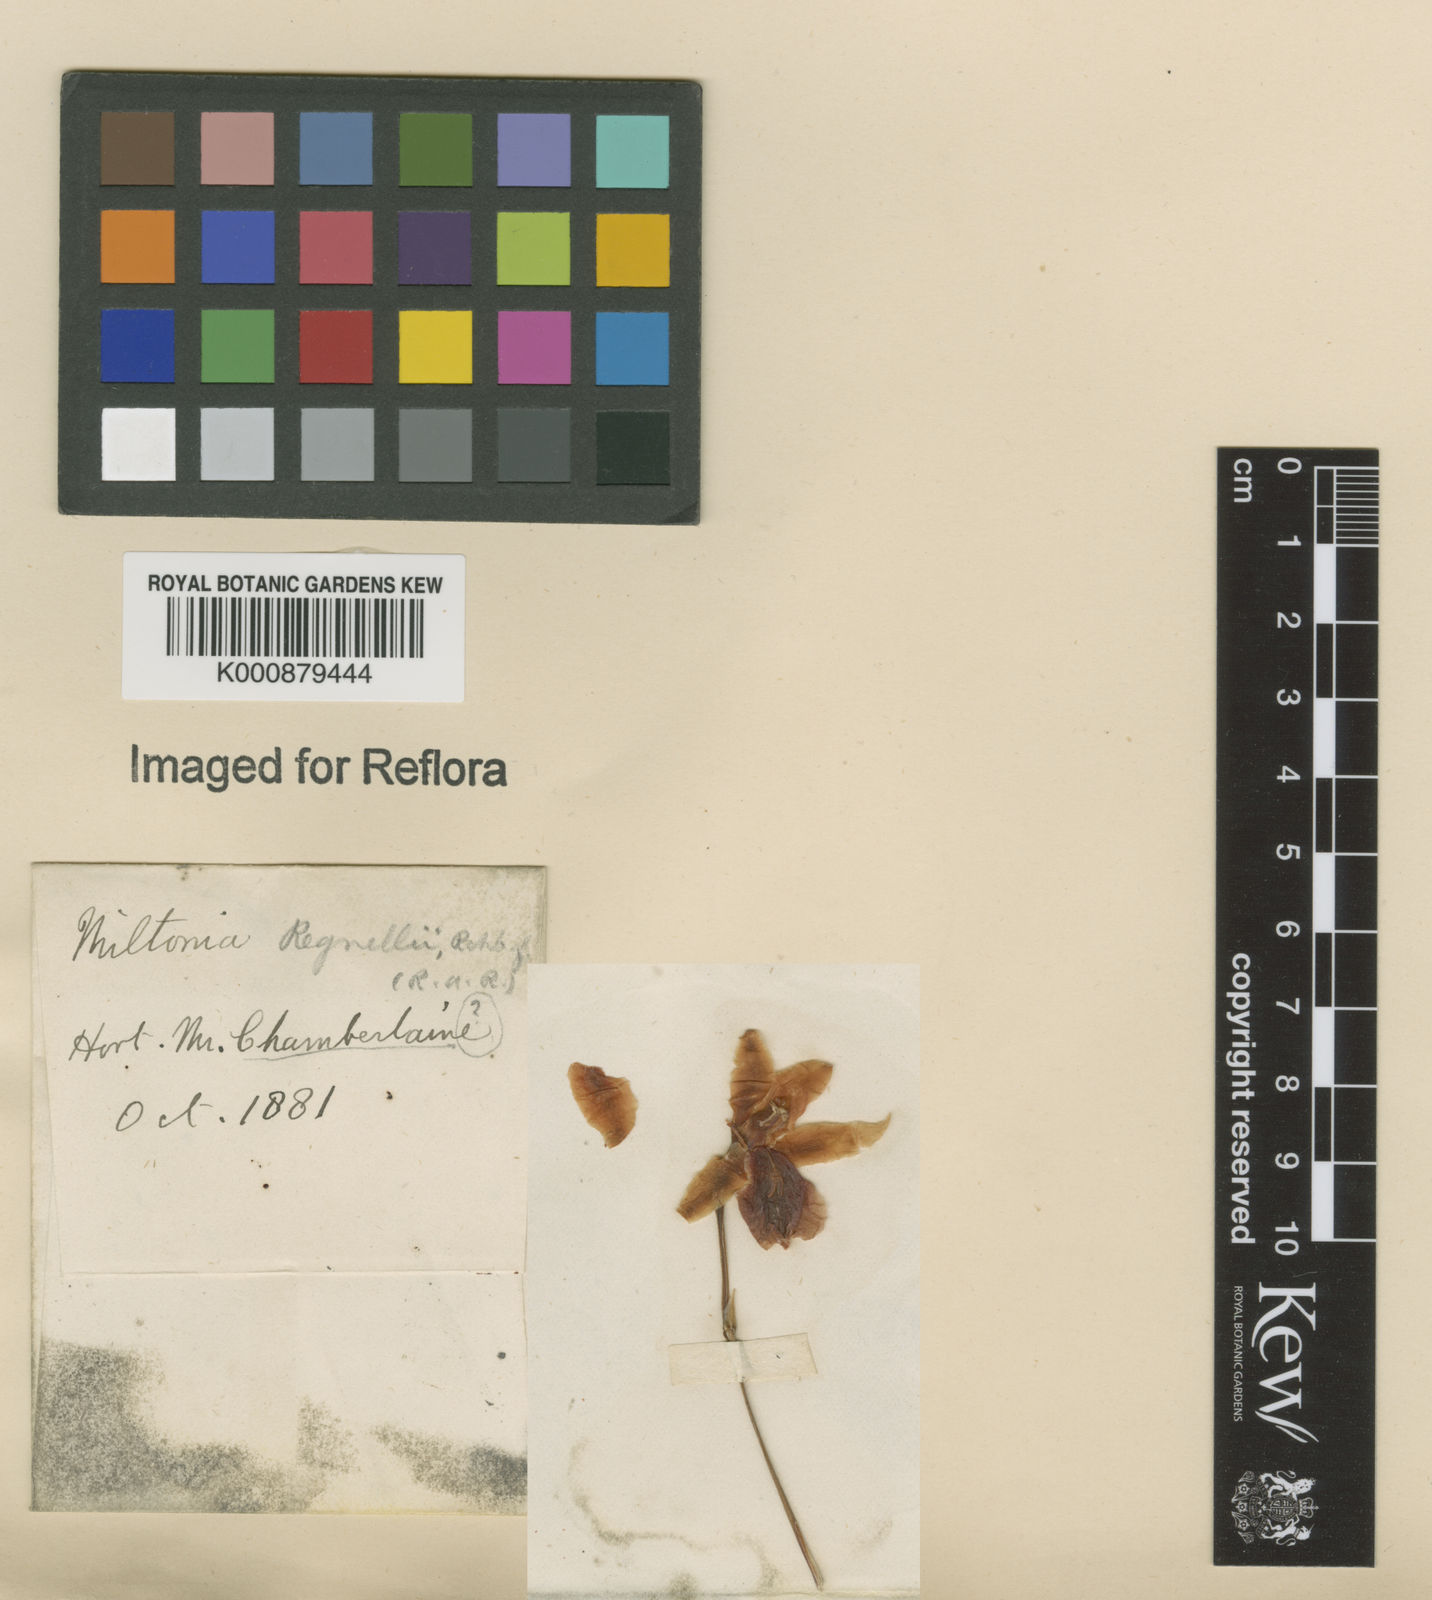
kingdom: Plantae
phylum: Tracheophyta
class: Liliopsida
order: Asparagales
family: Orchidaceae
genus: Miltonia
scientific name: Miltonia regnellii
